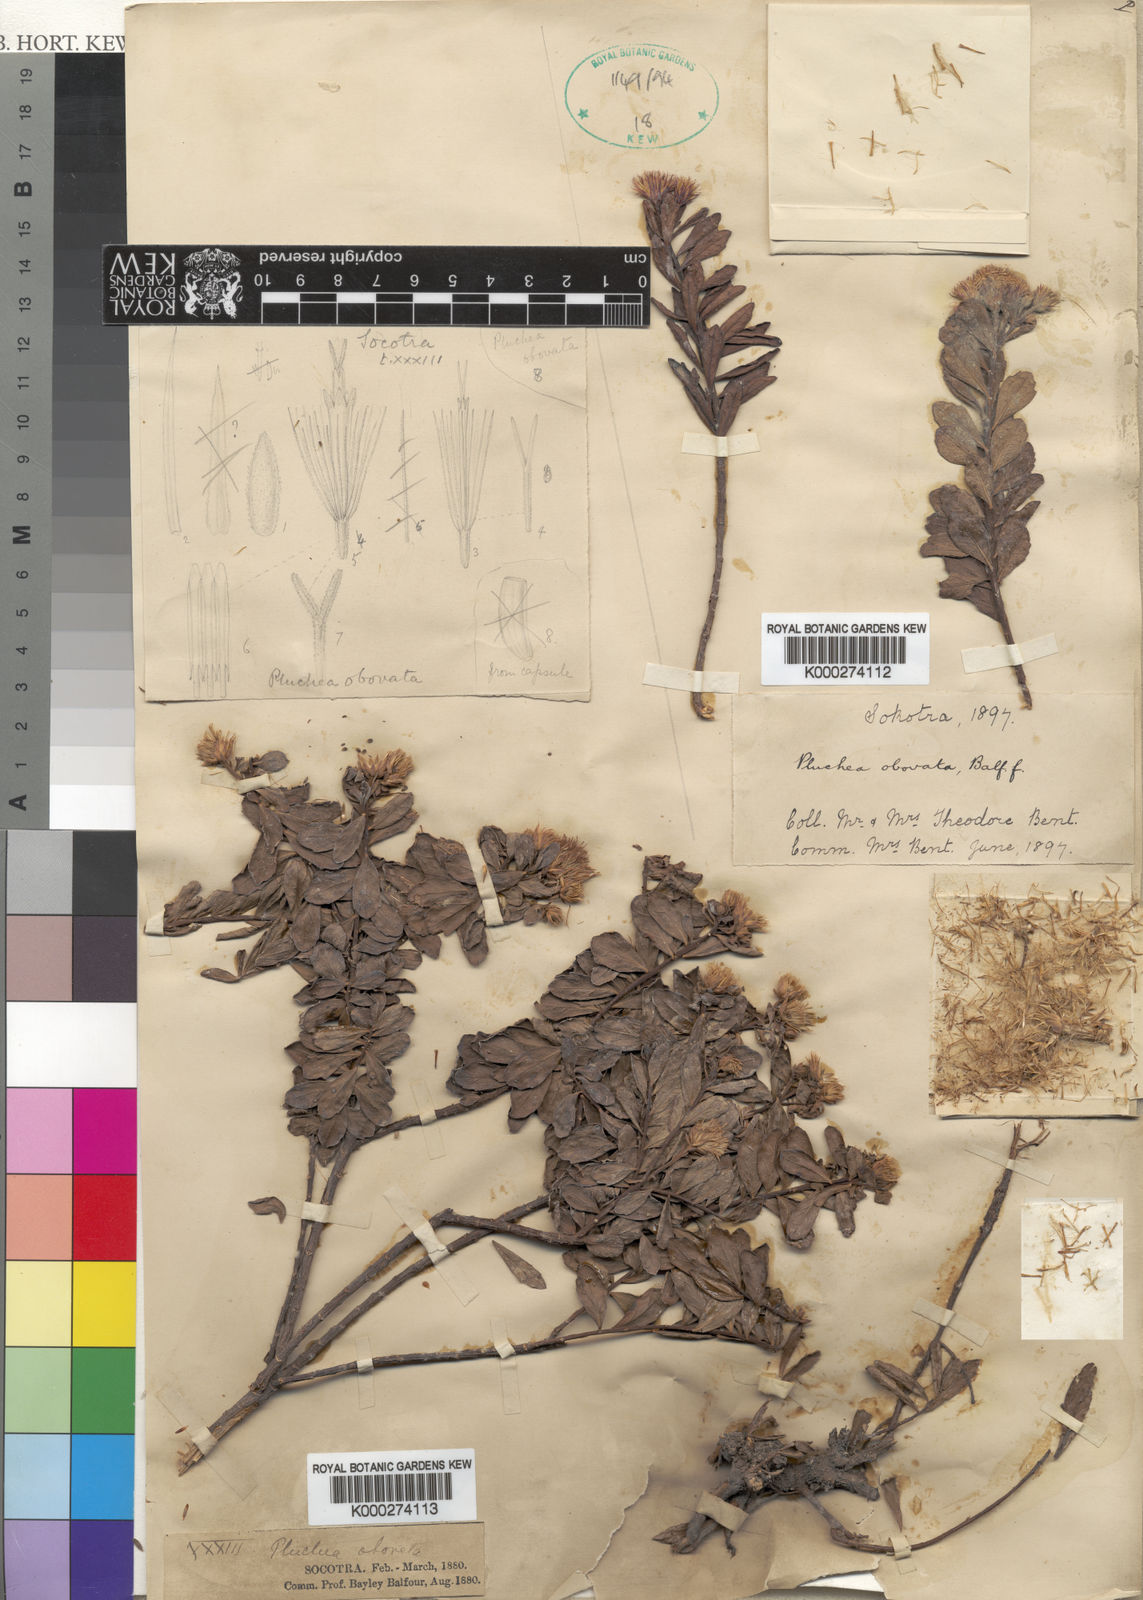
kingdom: Plantae
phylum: Tracheophyta
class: Magnoliopsida
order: Asterales
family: Asteraceae
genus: Pluchea
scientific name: Pluchea obovata
